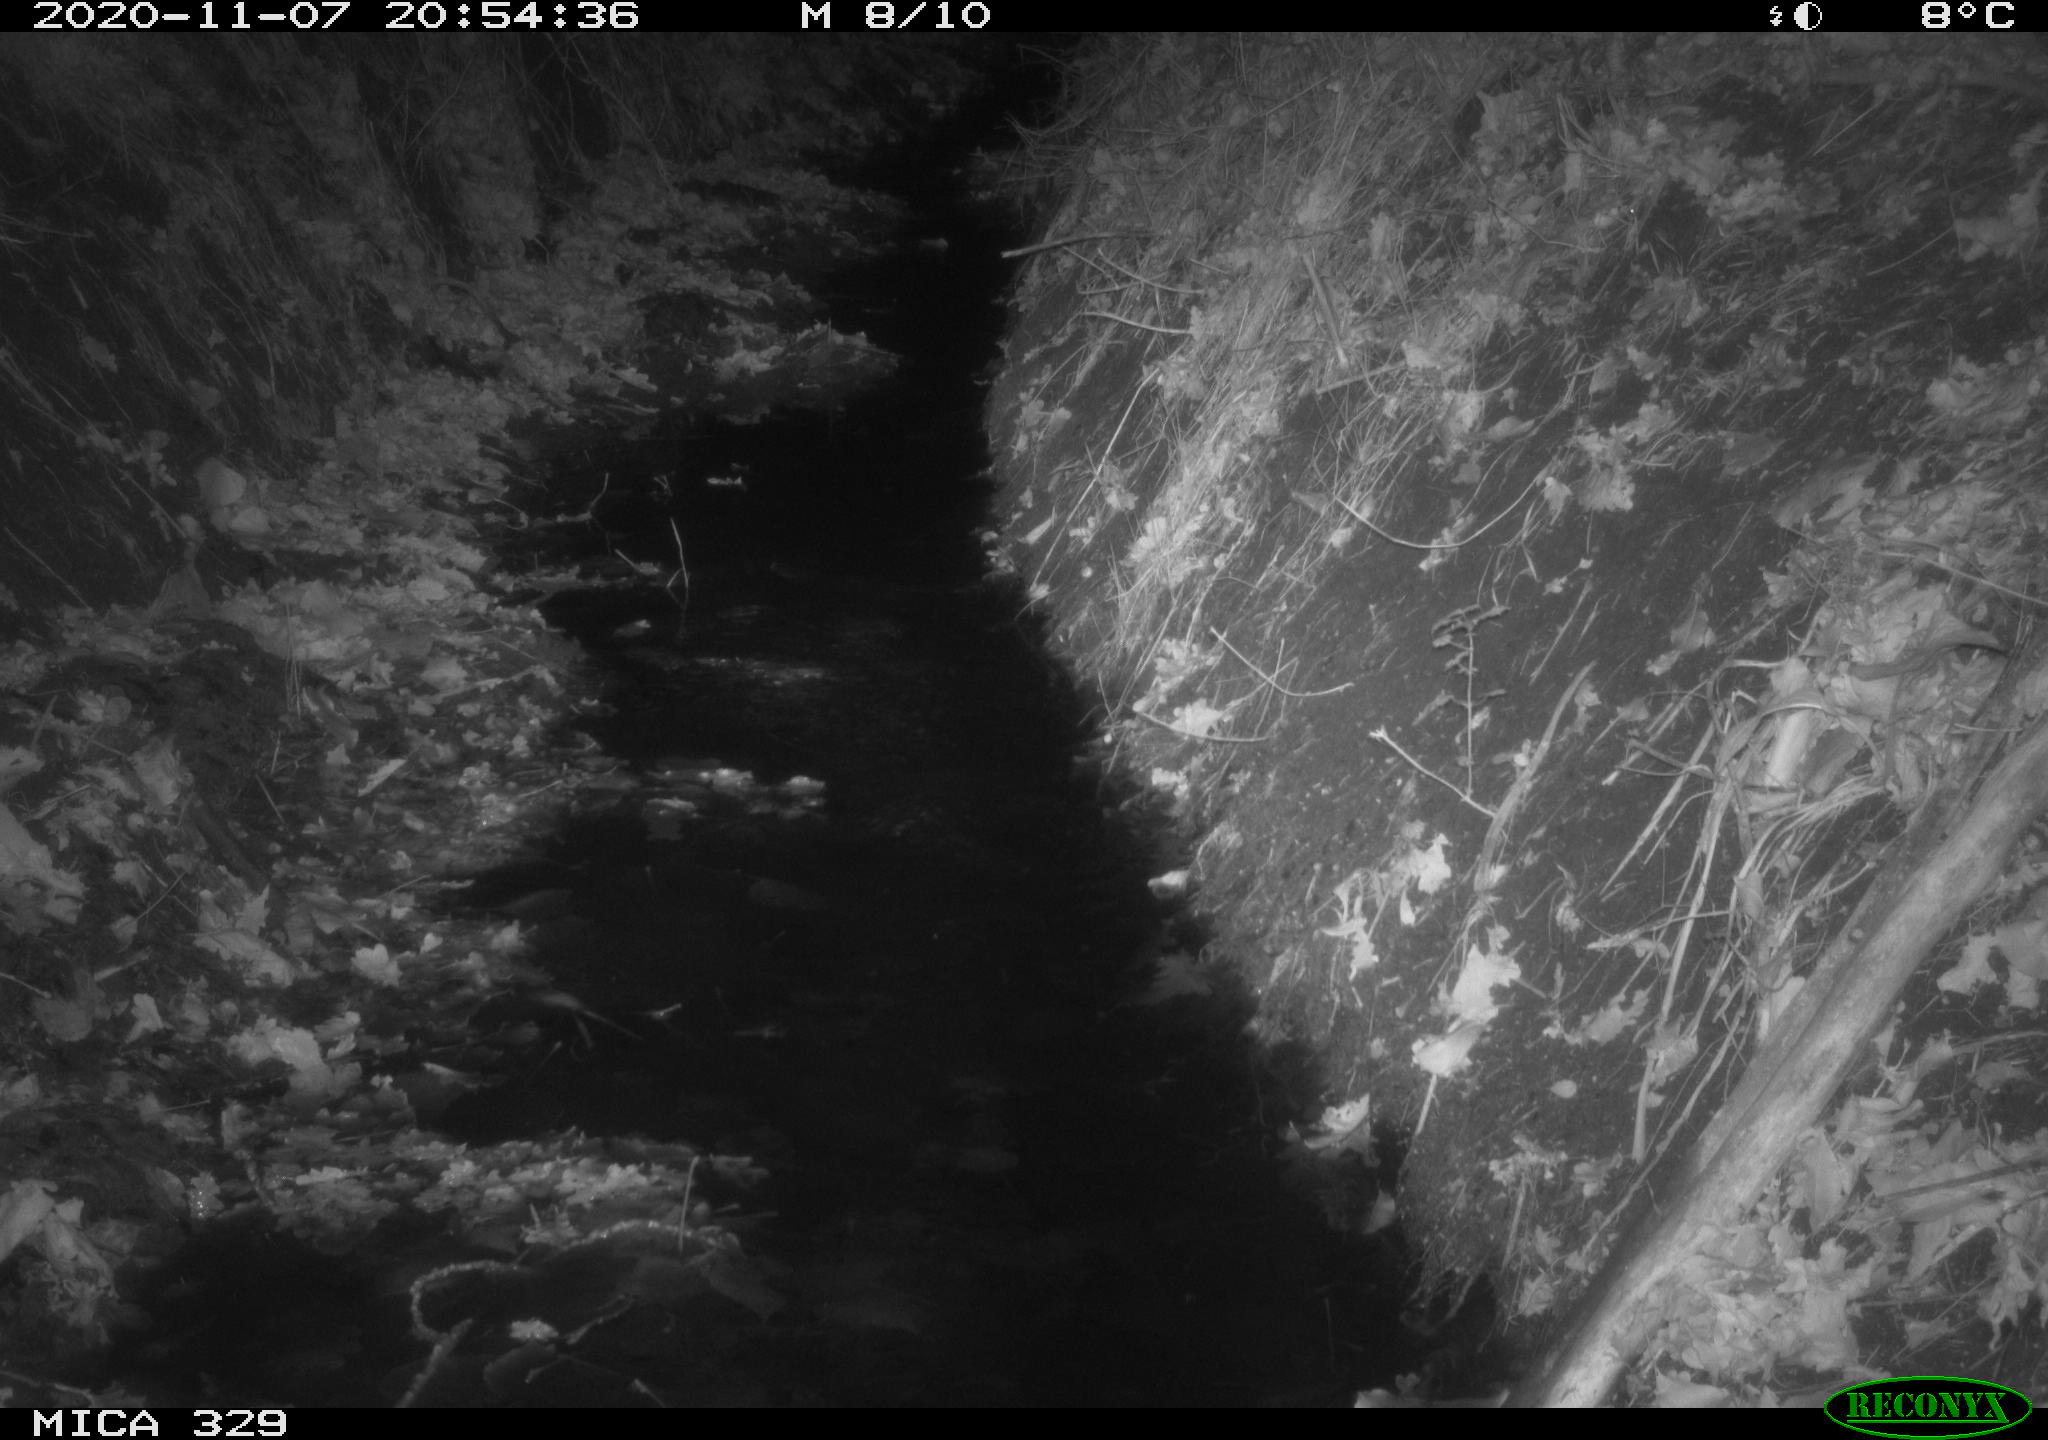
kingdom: Animalia
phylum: Chordata
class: Mammalia
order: Rodentia
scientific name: Rodentia
